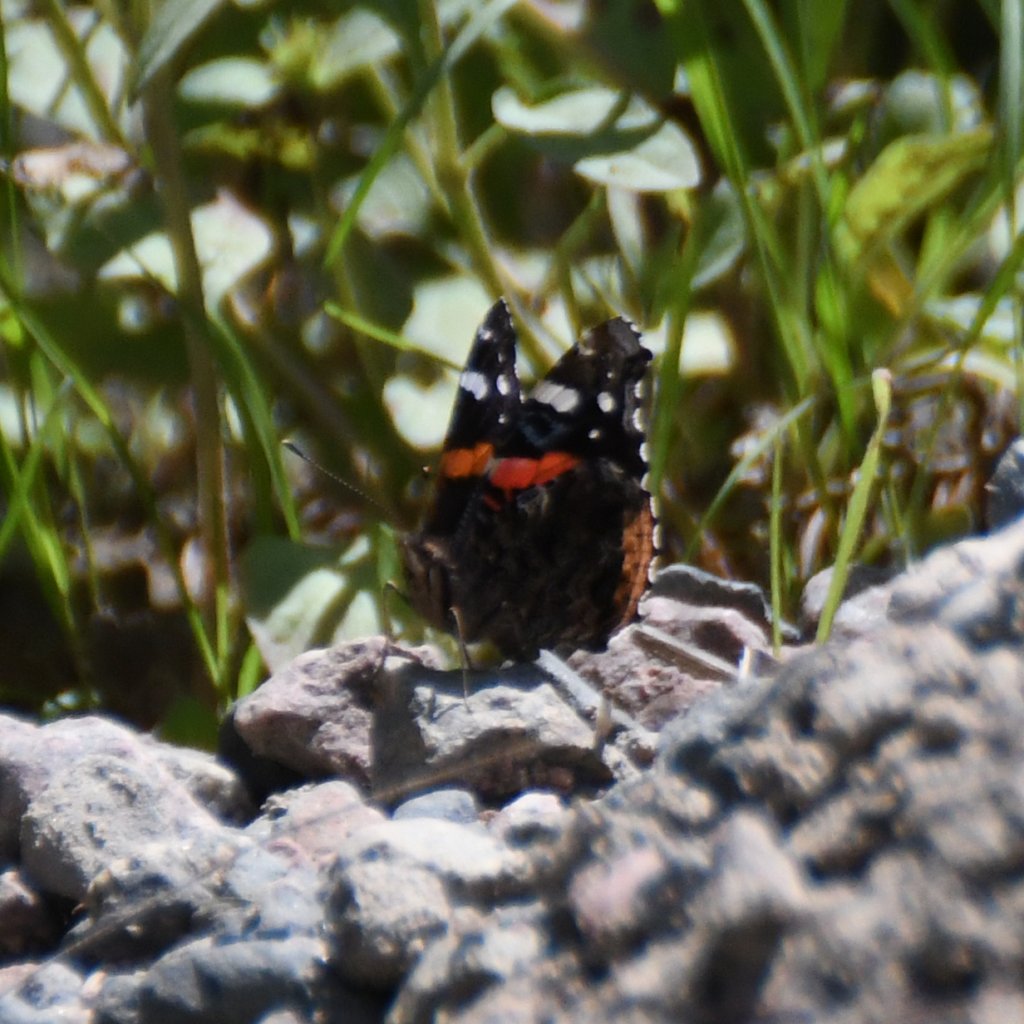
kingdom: Animalia
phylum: Arthropoda
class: Insecta
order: Lepidoptera
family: Nymphalidae
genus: Vanessa
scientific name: Vanessa atalanta
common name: Red Admiral
